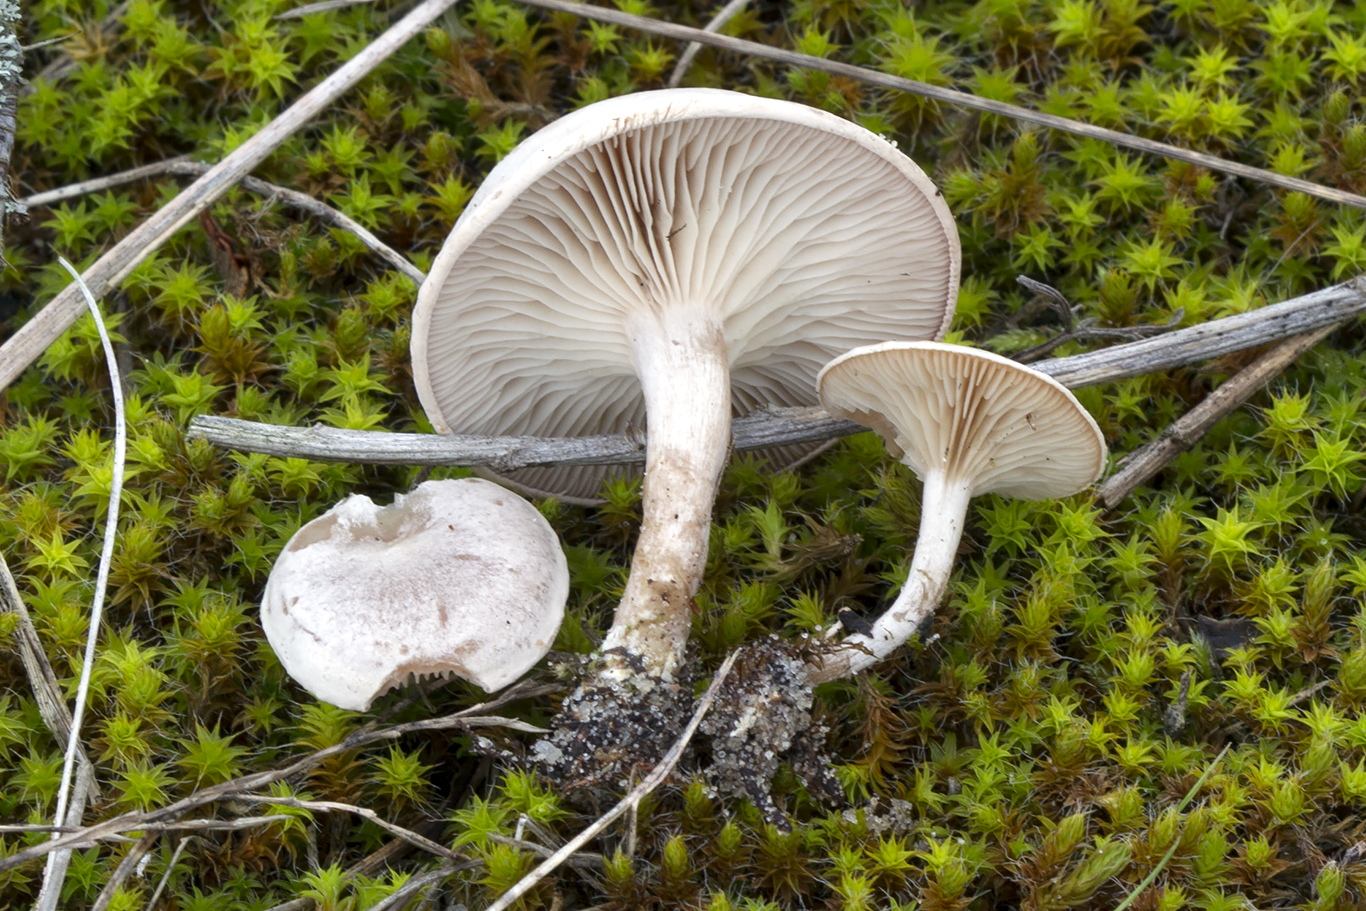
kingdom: Fungi
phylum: Basidiomycota
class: Agaricomycetes
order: Agaricales
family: Tricholomataceae
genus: Clitocybe
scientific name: Clitocybe rivulosa
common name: eng-tragthat
